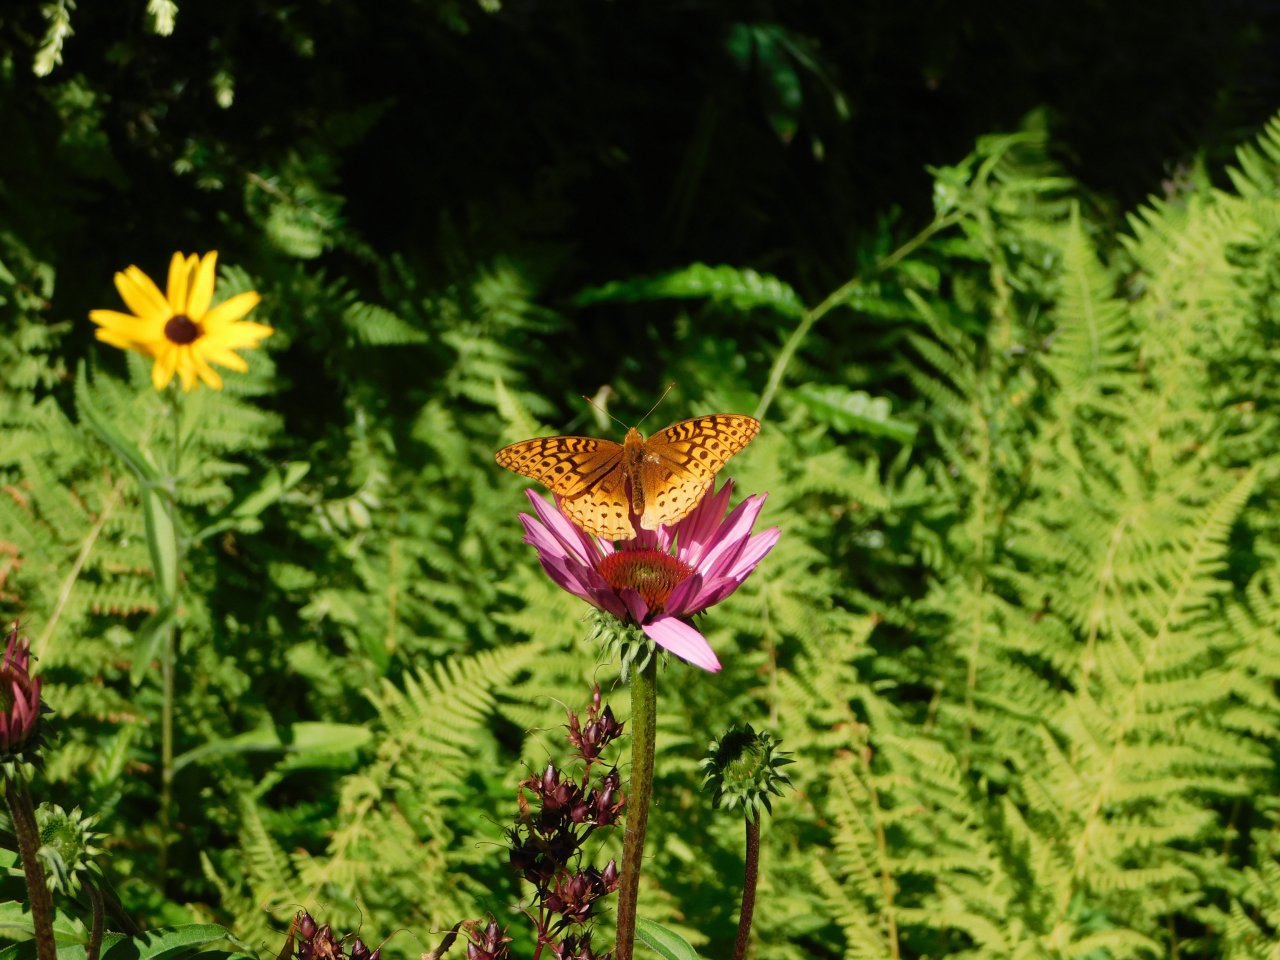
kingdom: Animalia
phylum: Arthropoda
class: Insecta
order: Lepidoptera
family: Nymphalidae
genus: Speyeria
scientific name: Speyeria cybele
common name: Great Spangled Fritillary
